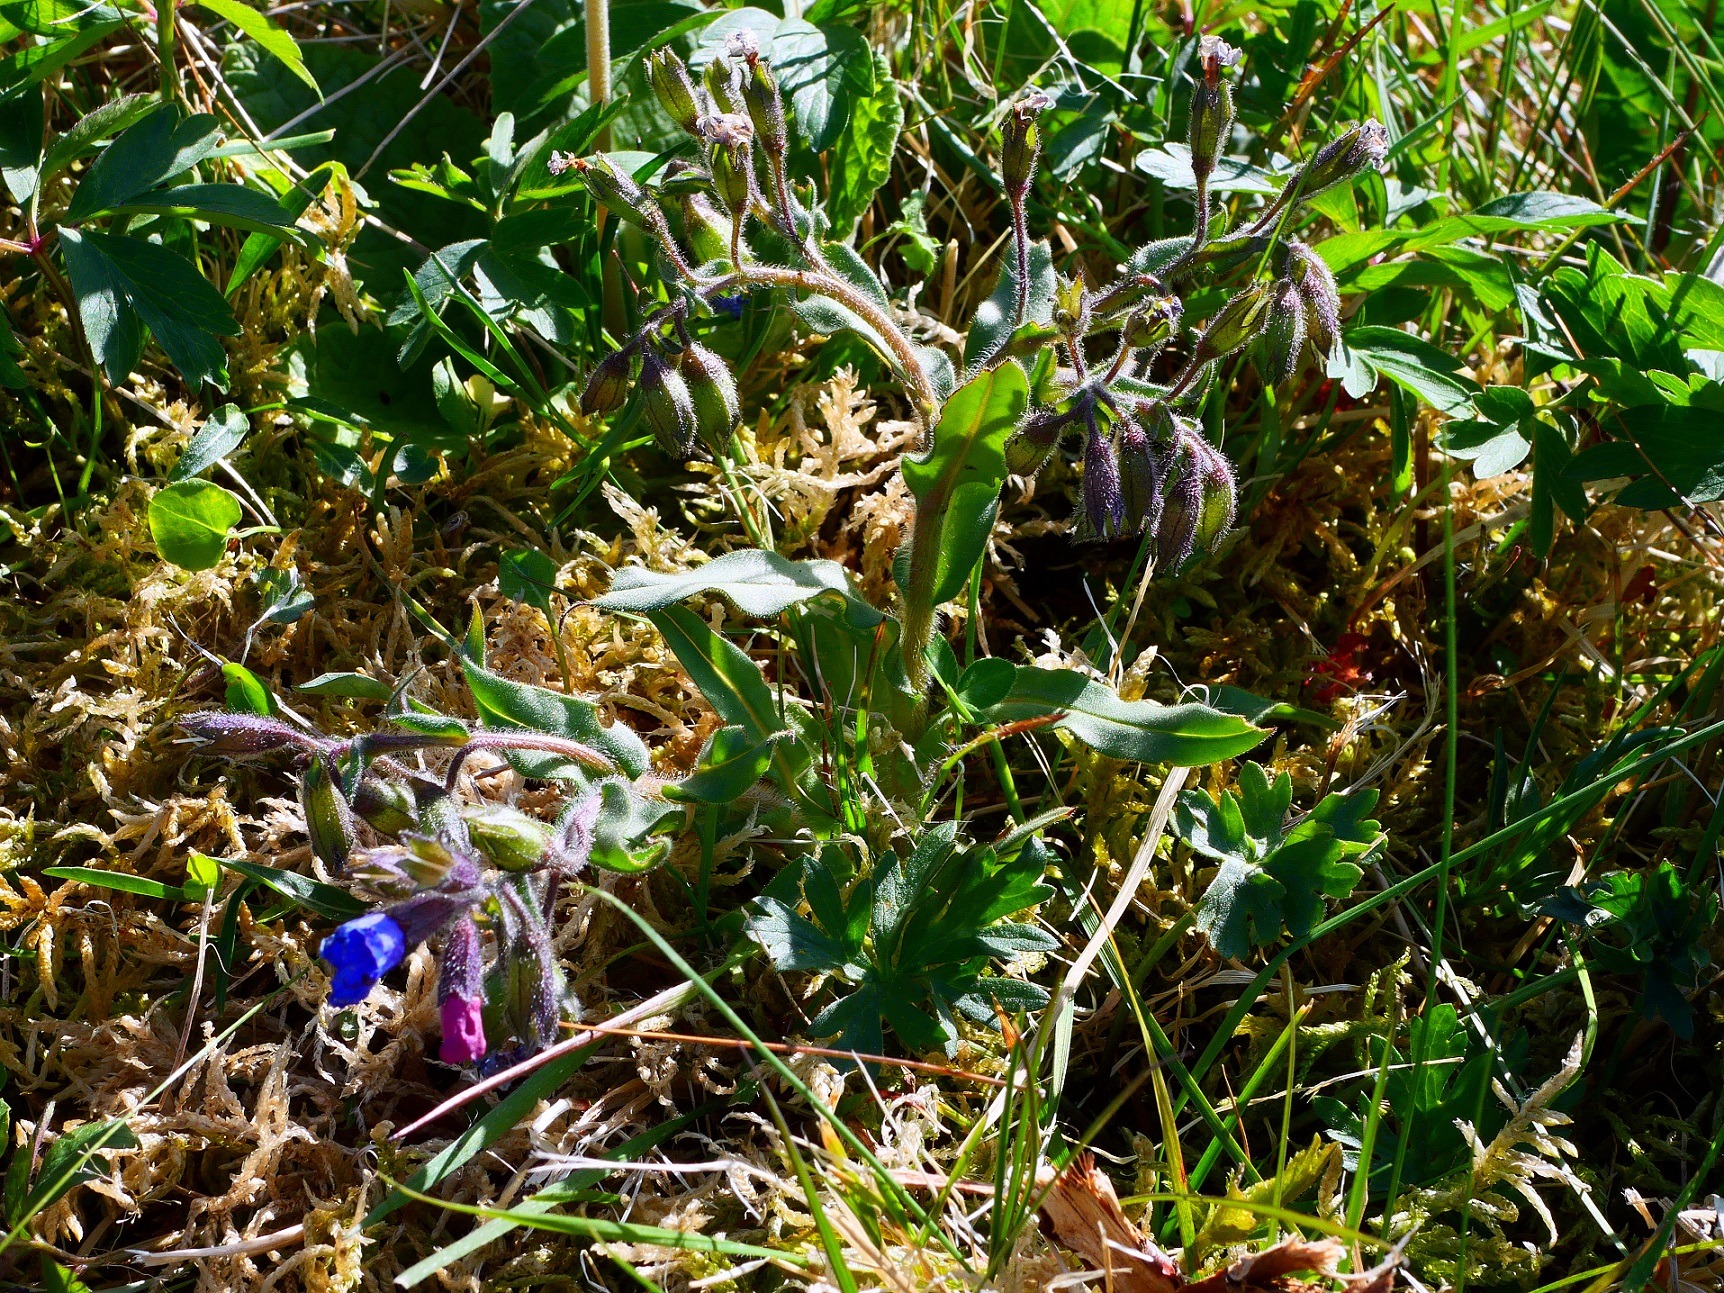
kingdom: Plantae
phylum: Tracheophyta
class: Magnoliopsida
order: Boraginales
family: Boraginaceae
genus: Pulmonaria
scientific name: Pulmonaria angustifolia
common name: Himmelblå lungeurt
